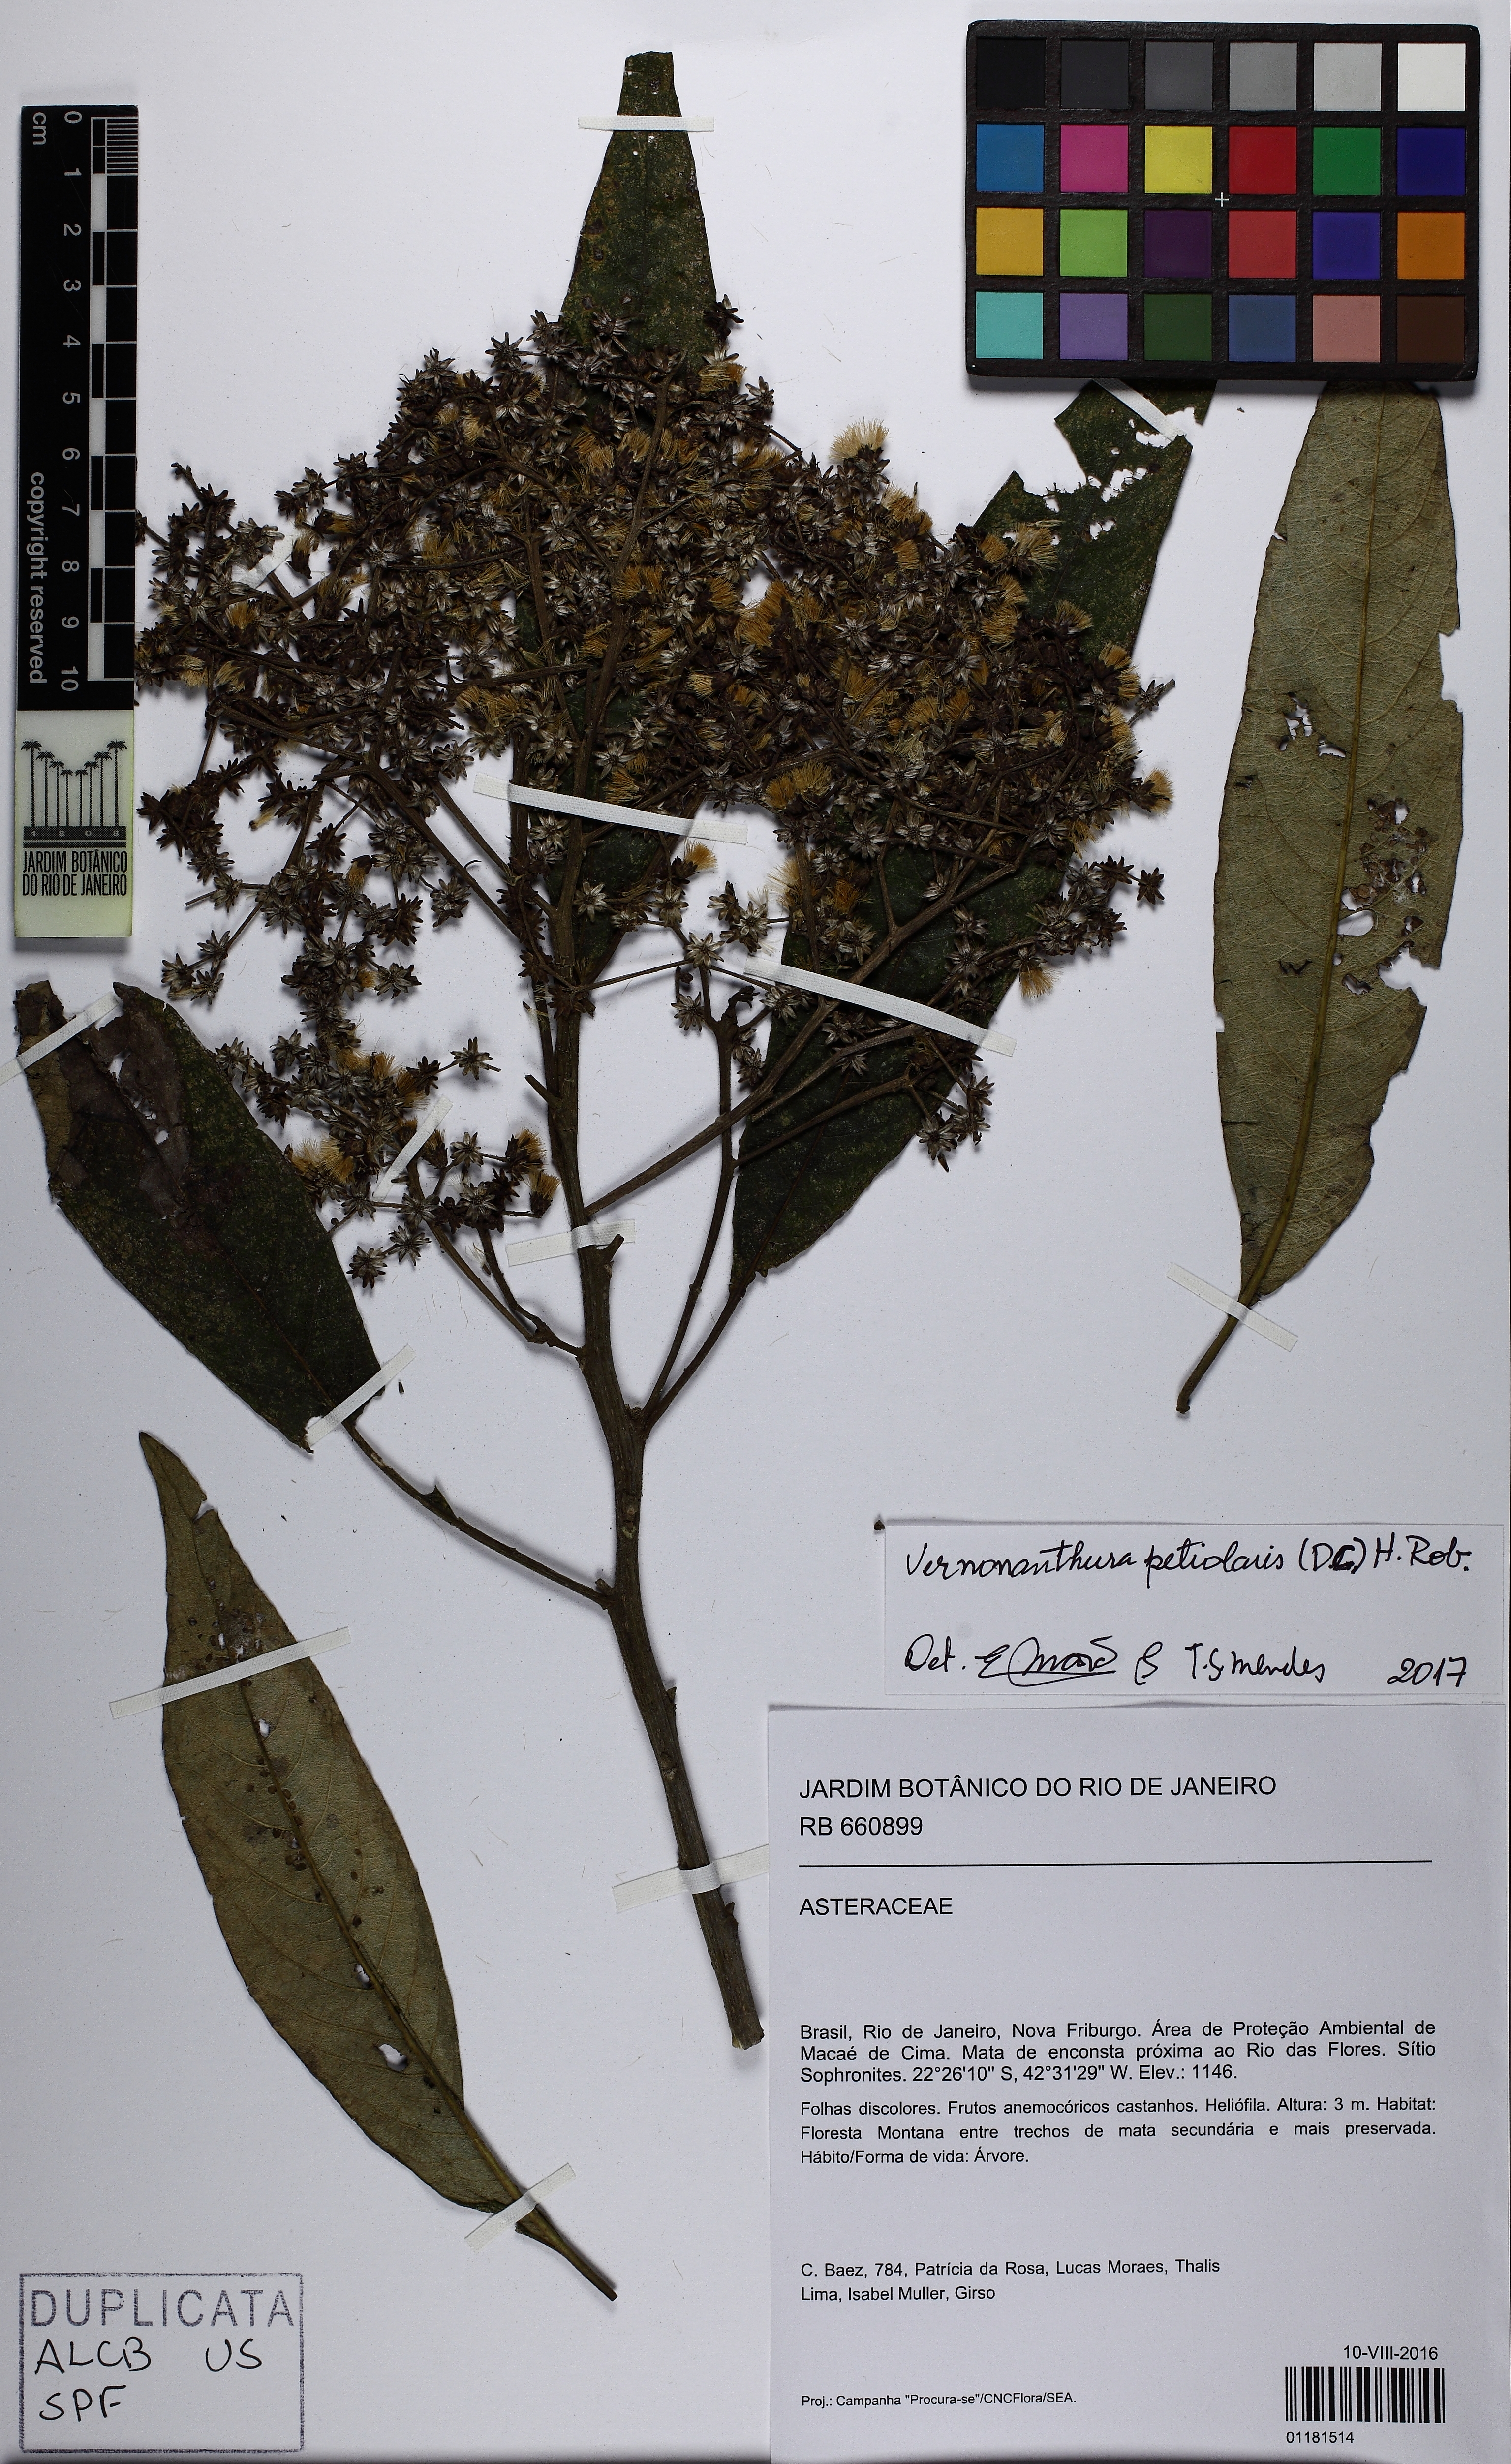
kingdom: Plantae
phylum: Tracheophyta
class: Magnoliopsida
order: Asterales
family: Asteraceae
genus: Vernonanthura
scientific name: Vernonanthura petiolaris
